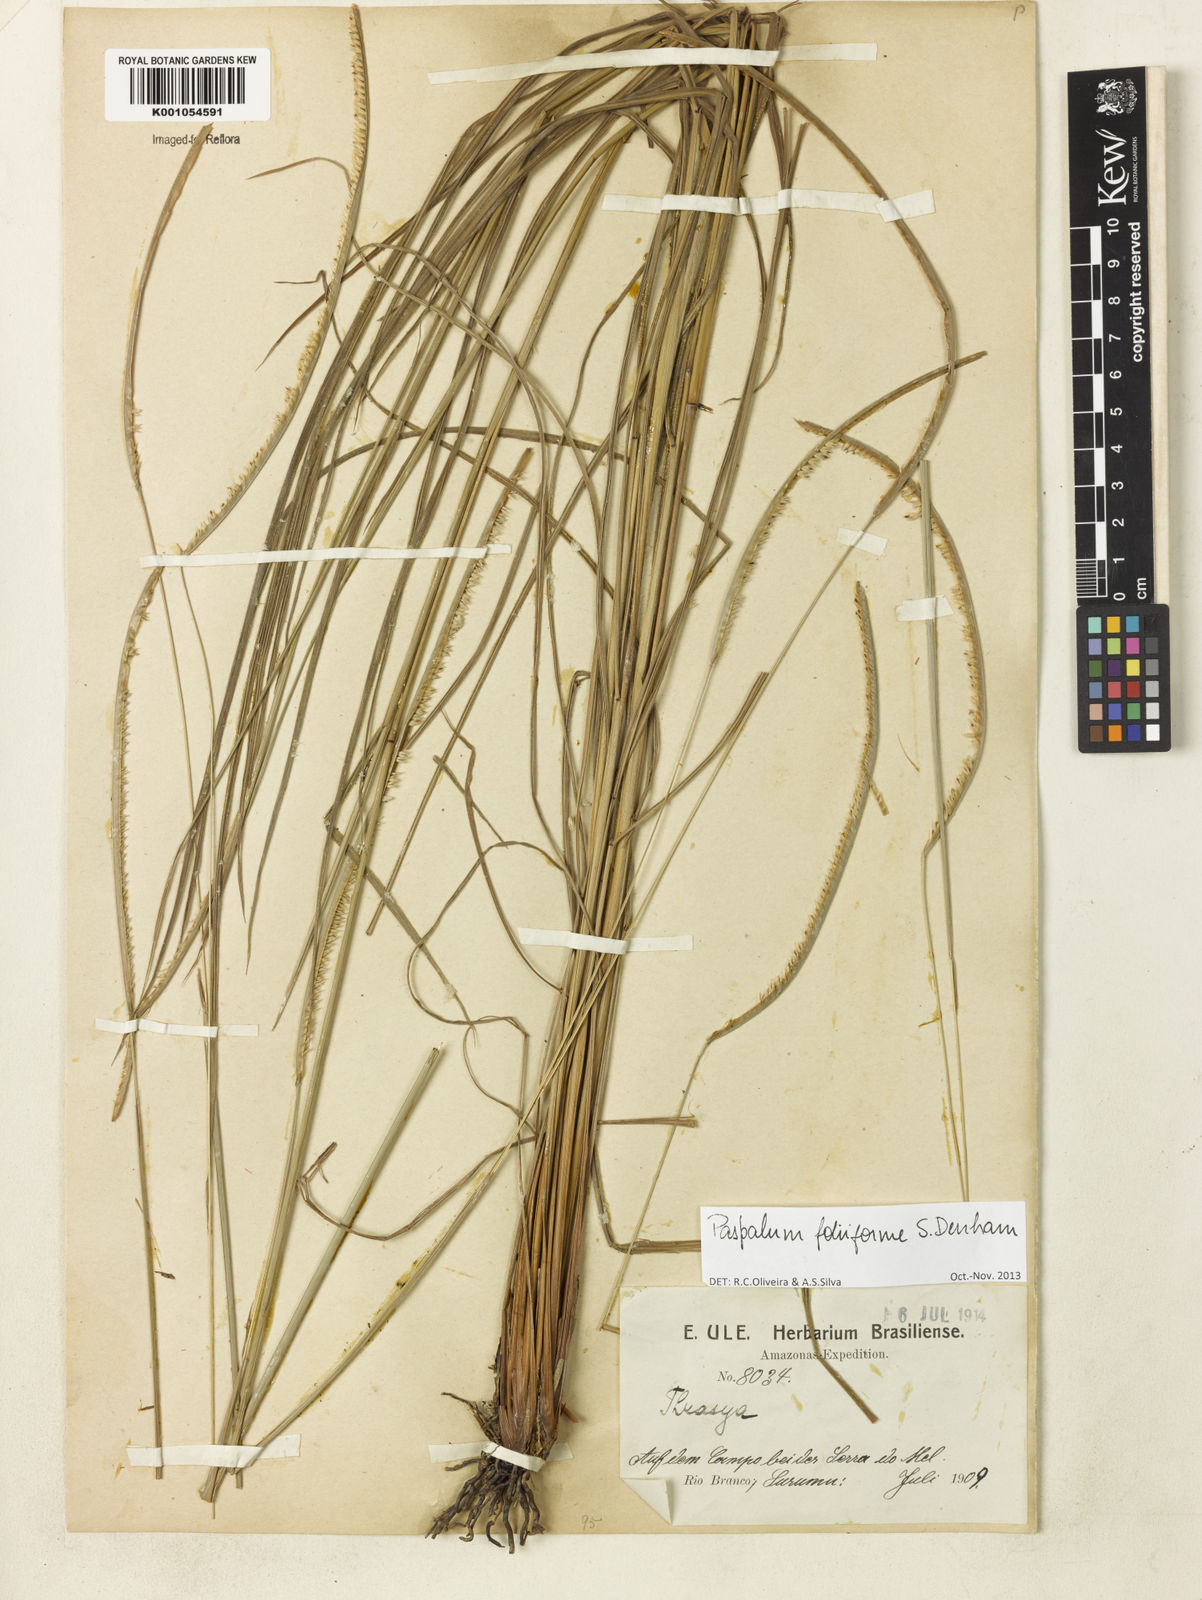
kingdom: Plantae
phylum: Tracheophyta
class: Liliopsida
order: Poales
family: Poaceae
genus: Paspalum
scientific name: Paspalum foliiforme
